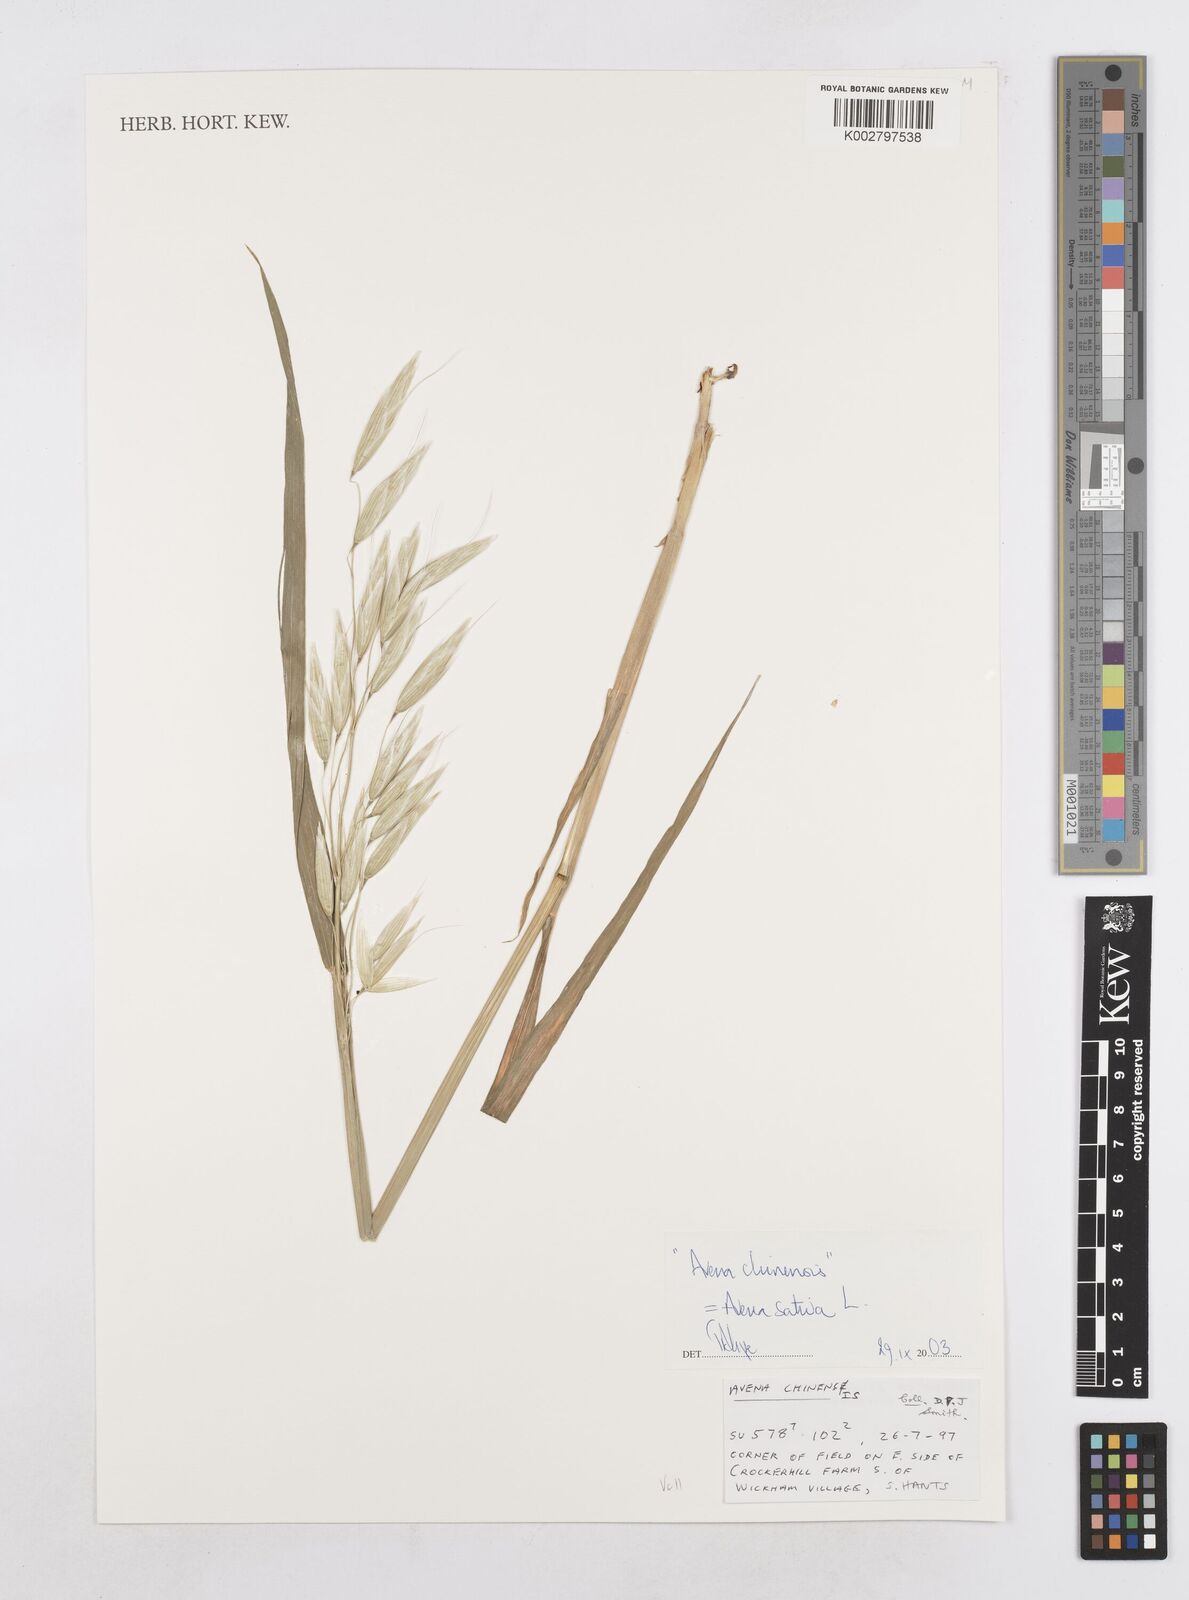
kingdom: Plantae
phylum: Tracheophyta
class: Liliopsida
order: Poales
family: Poaceae
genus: Avena
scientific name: Avena sativa
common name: Oat
